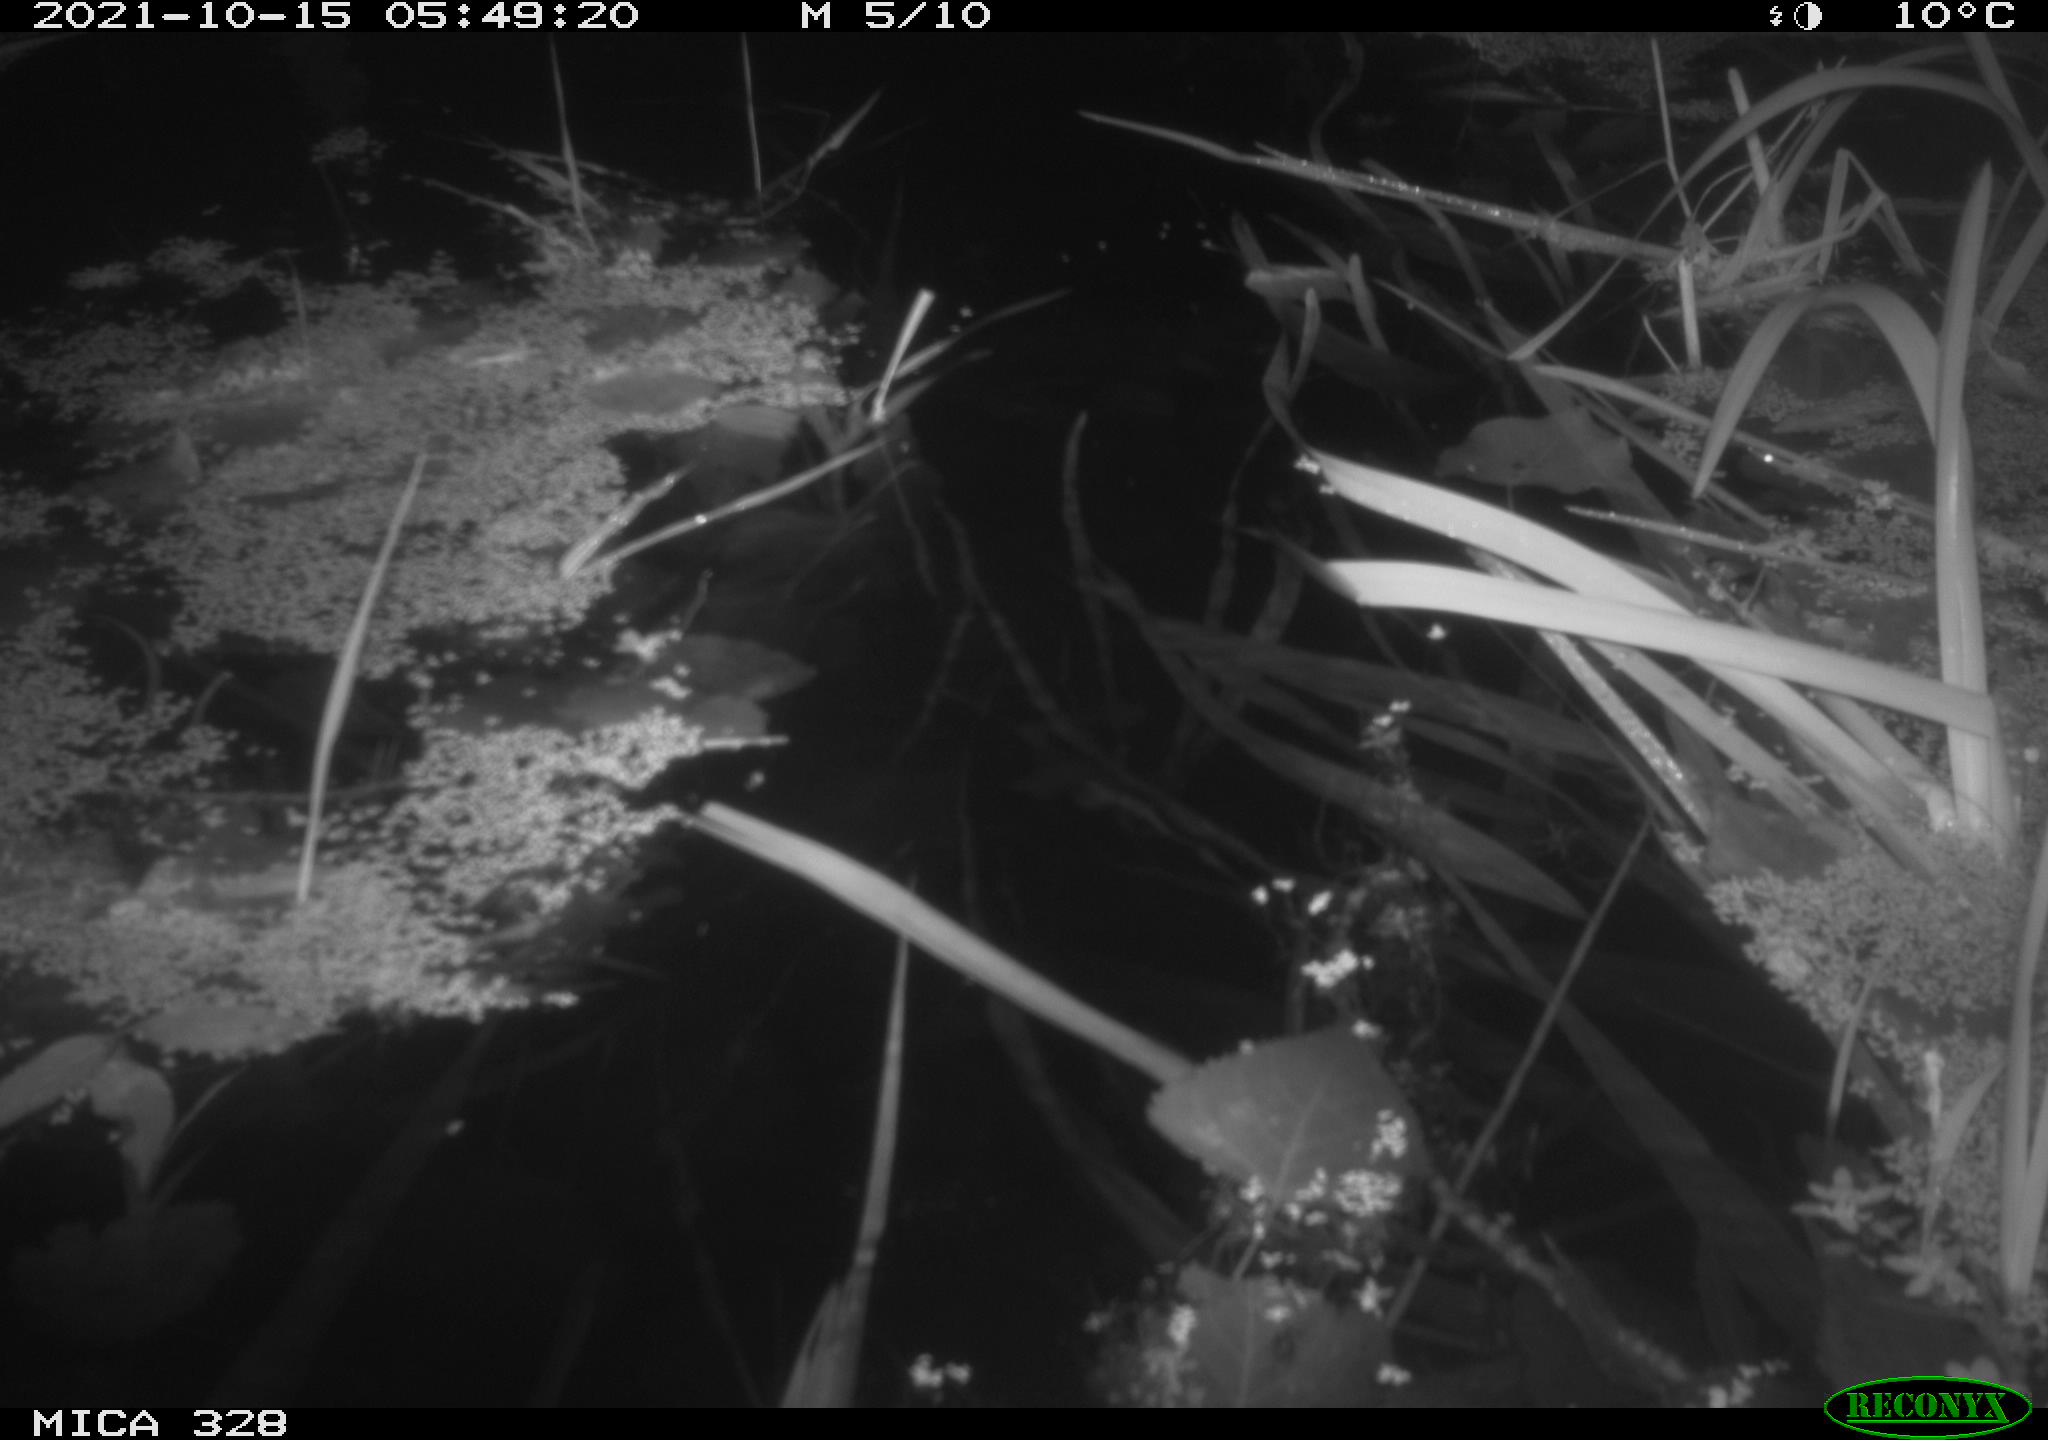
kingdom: Animalia
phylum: Chordata
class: Mammalia
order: Rodentia
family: Cricetidae
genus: Ondatra
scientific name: Ondatra zibethicus
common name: Muskrat
